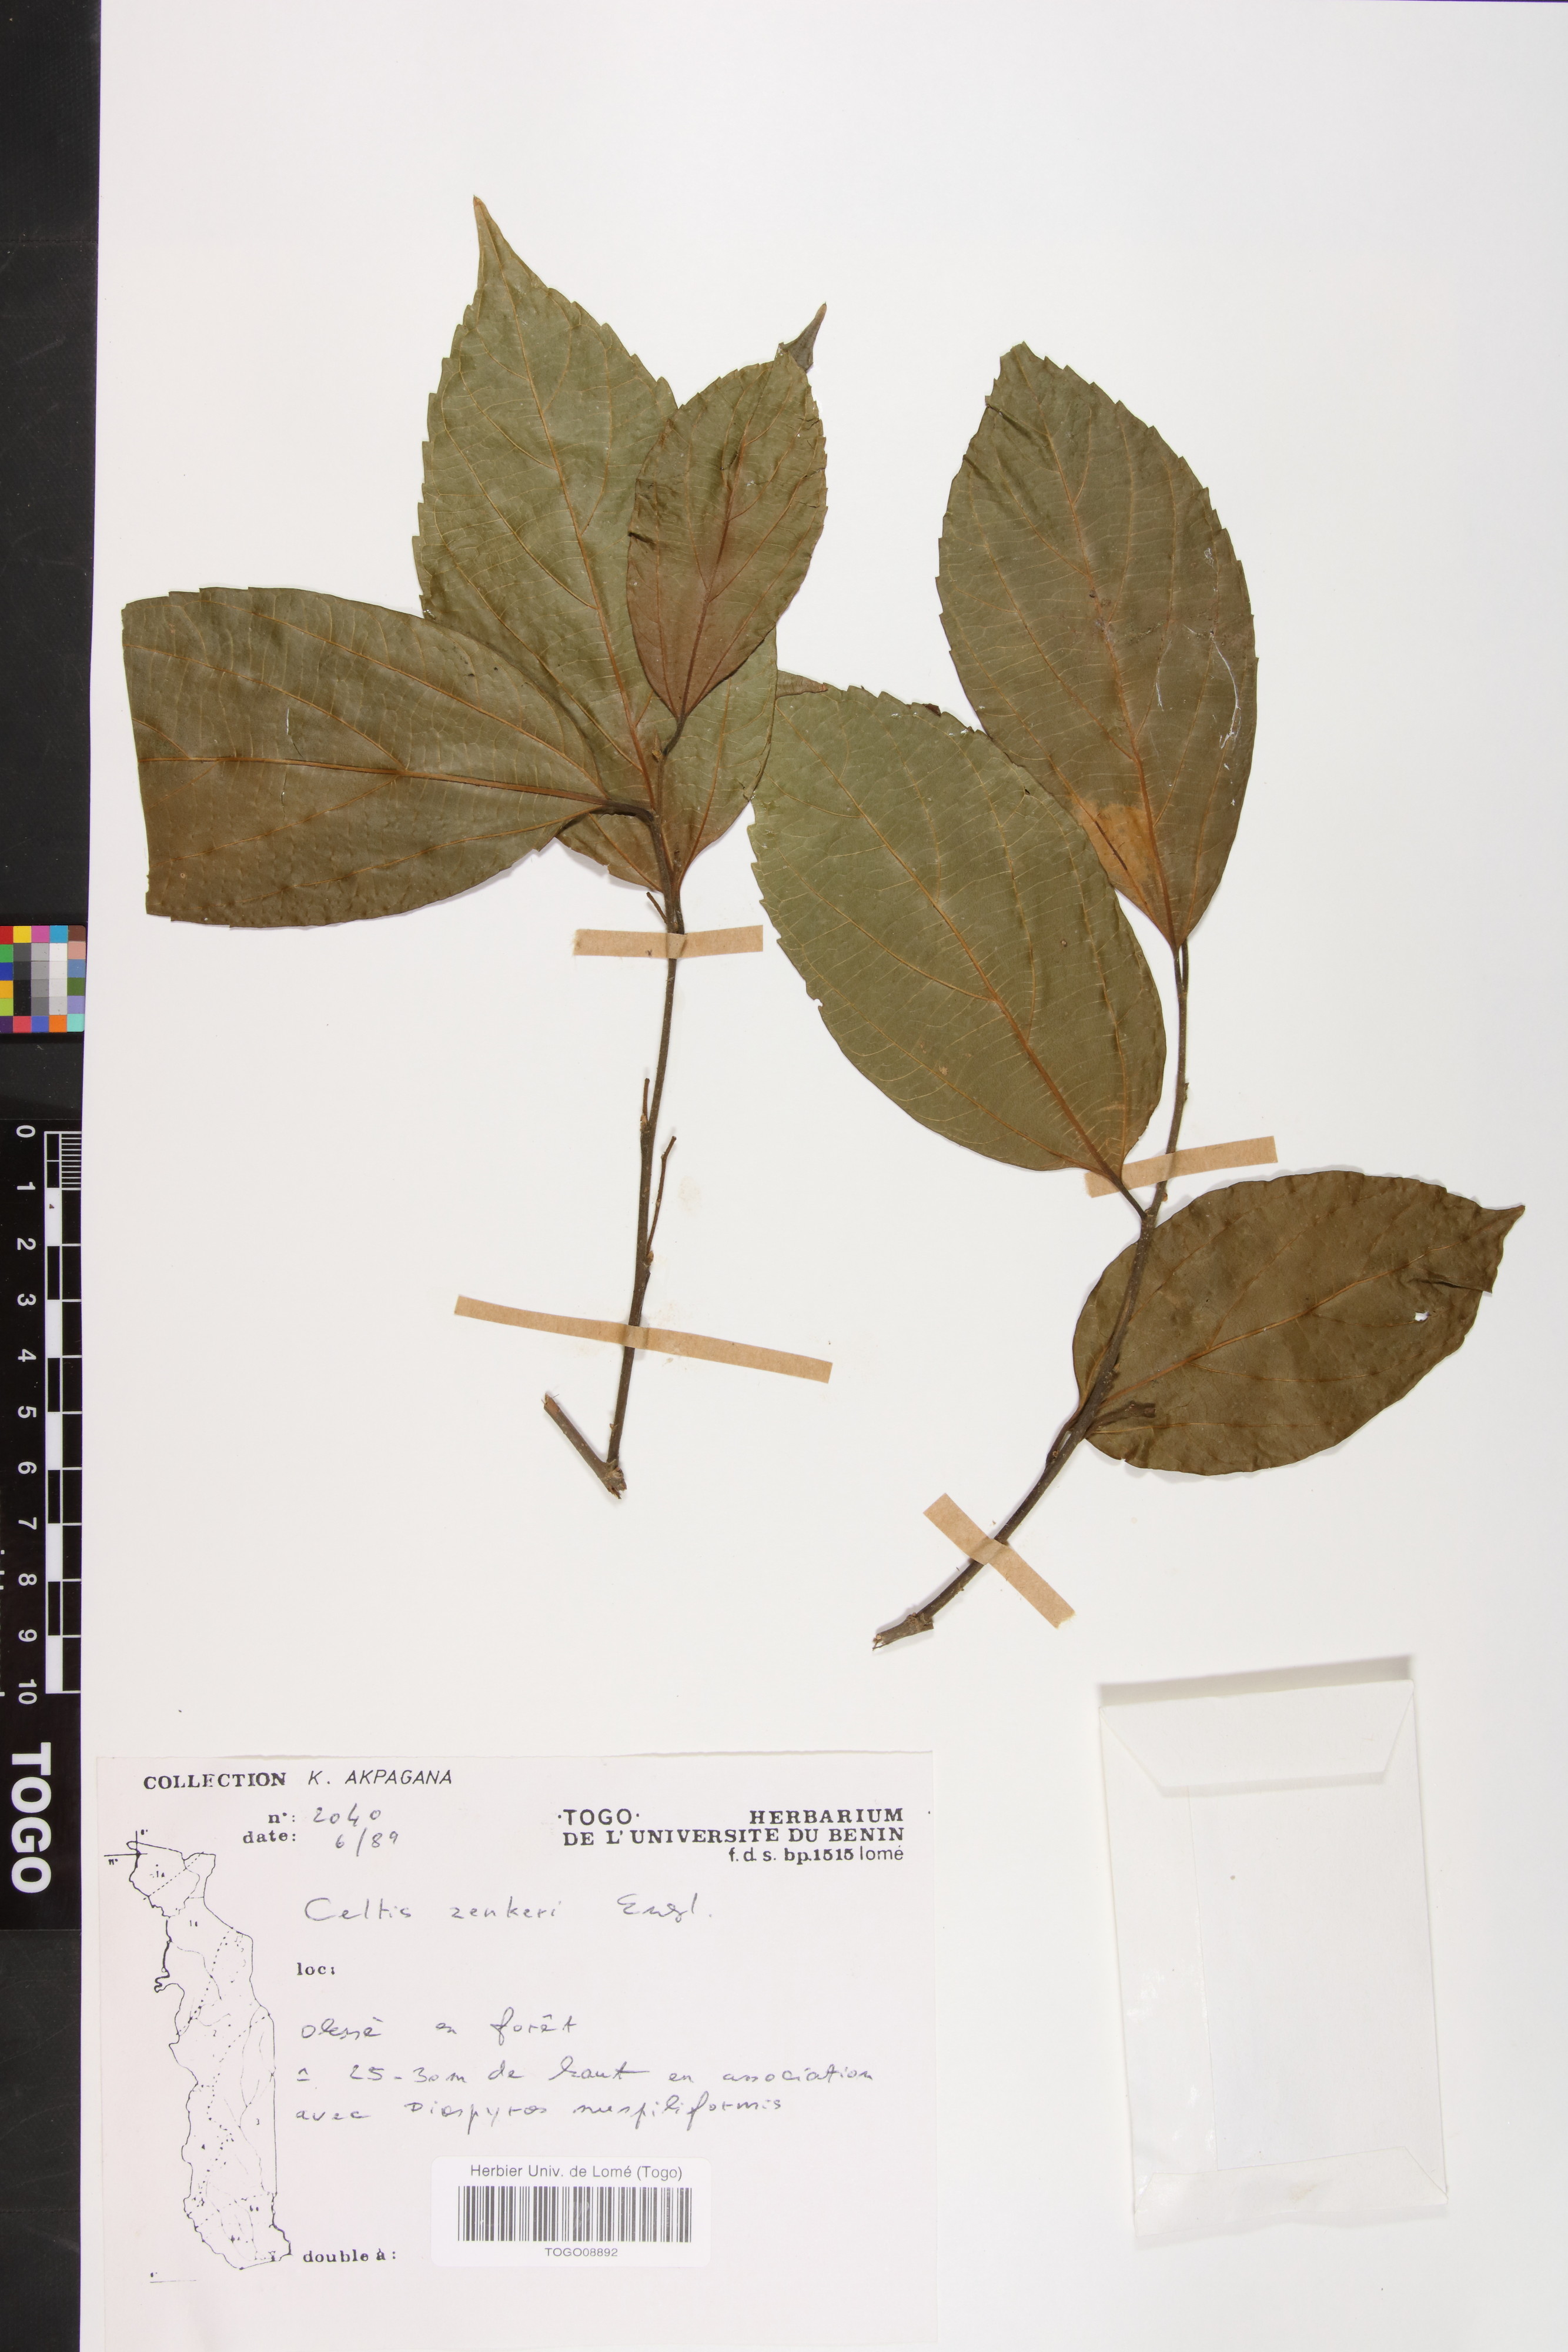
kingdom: Plantae
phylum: Tracheophyta
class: Magnoliopsida
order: Rosales
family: Cannabaceae
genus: Celtis
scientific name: Celtis zenkeri
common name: African celtis
